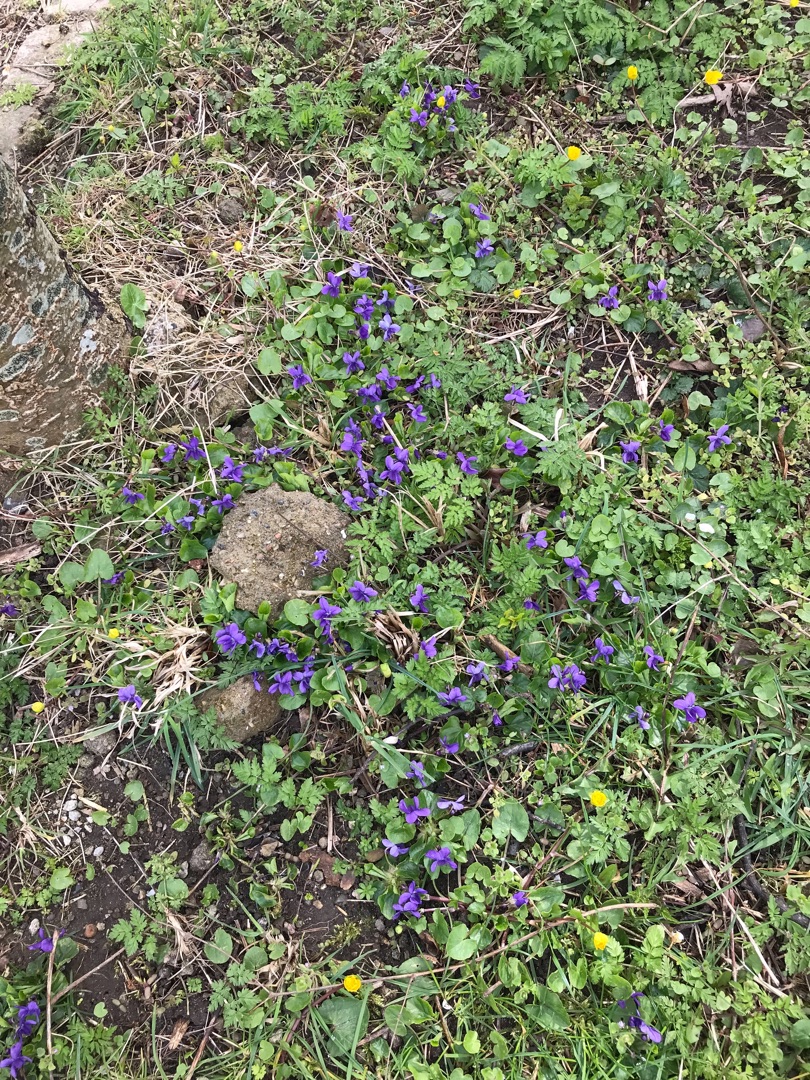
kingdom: Plantae
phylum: Tracheophyta
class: Magnoliopsida
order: Malpighiales
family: Violaceae
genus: Viola
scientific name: Viola odorata
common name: Marts-viol
